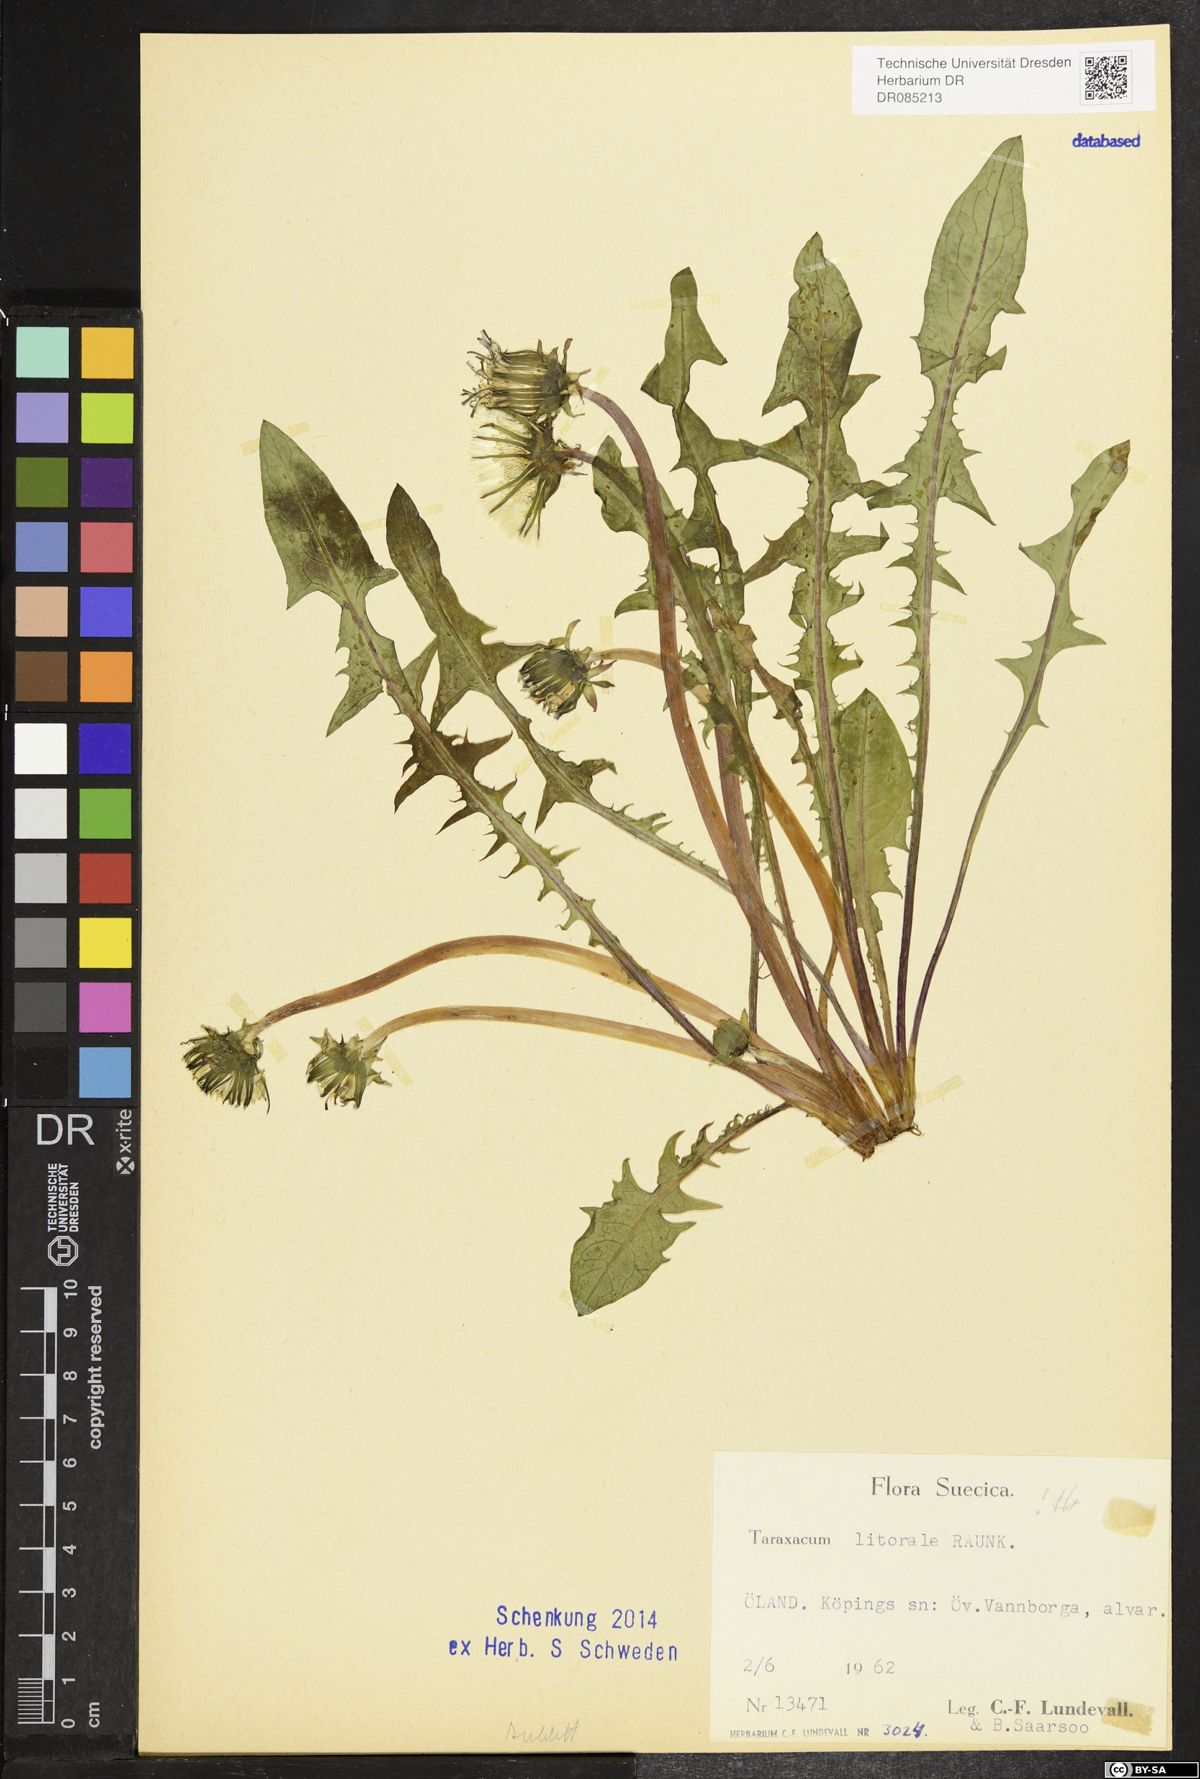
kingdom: Plantae
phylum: Tracheophyta
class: Magnoliopsida
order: Asterales
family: Asteraceae
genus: Taraxacum
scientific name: Taraxacum litorale
